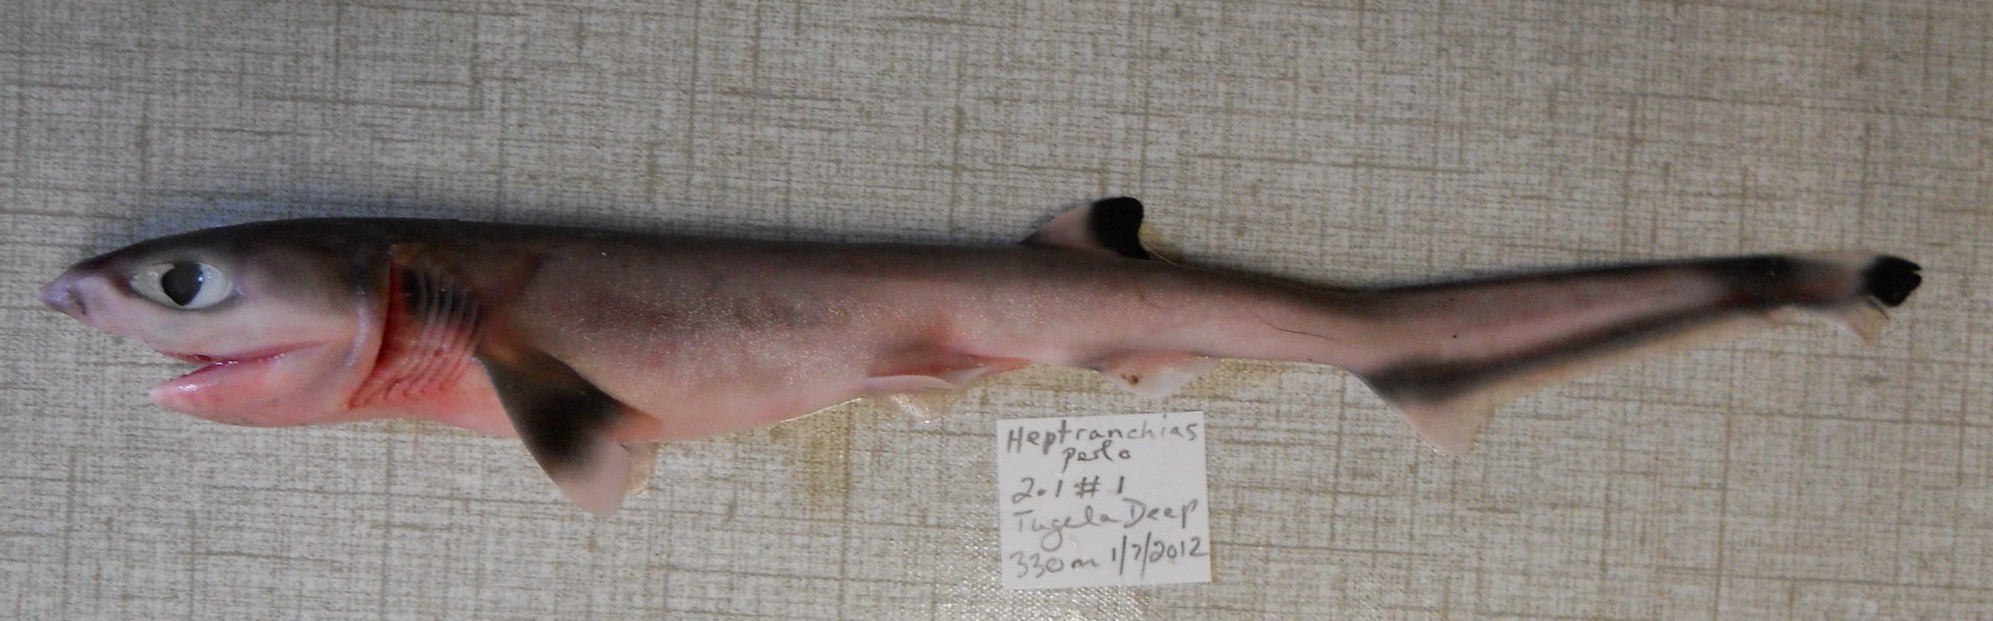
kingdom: Animalia
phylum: Chordata
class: Elasmobranchii
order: Hexanchiformes
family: Hexanchidae
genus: Heptranchias
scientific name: Heptranchias perlo
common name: Sharpnose sevengill shark
